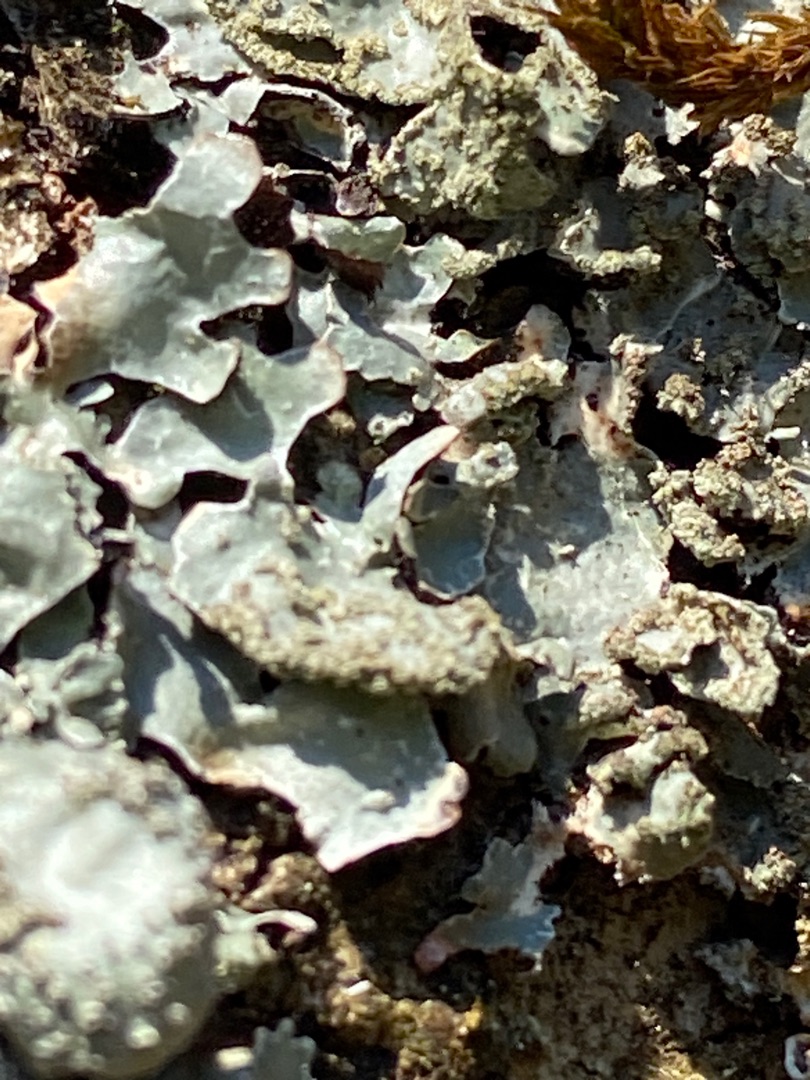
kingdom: Fungi
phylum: Ascomycota
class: Lecanoromycetes
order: Lecanorales
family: Parmeliaceae
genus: Parmelia
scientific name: Parmelia sulcata
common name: Rynket skållav
